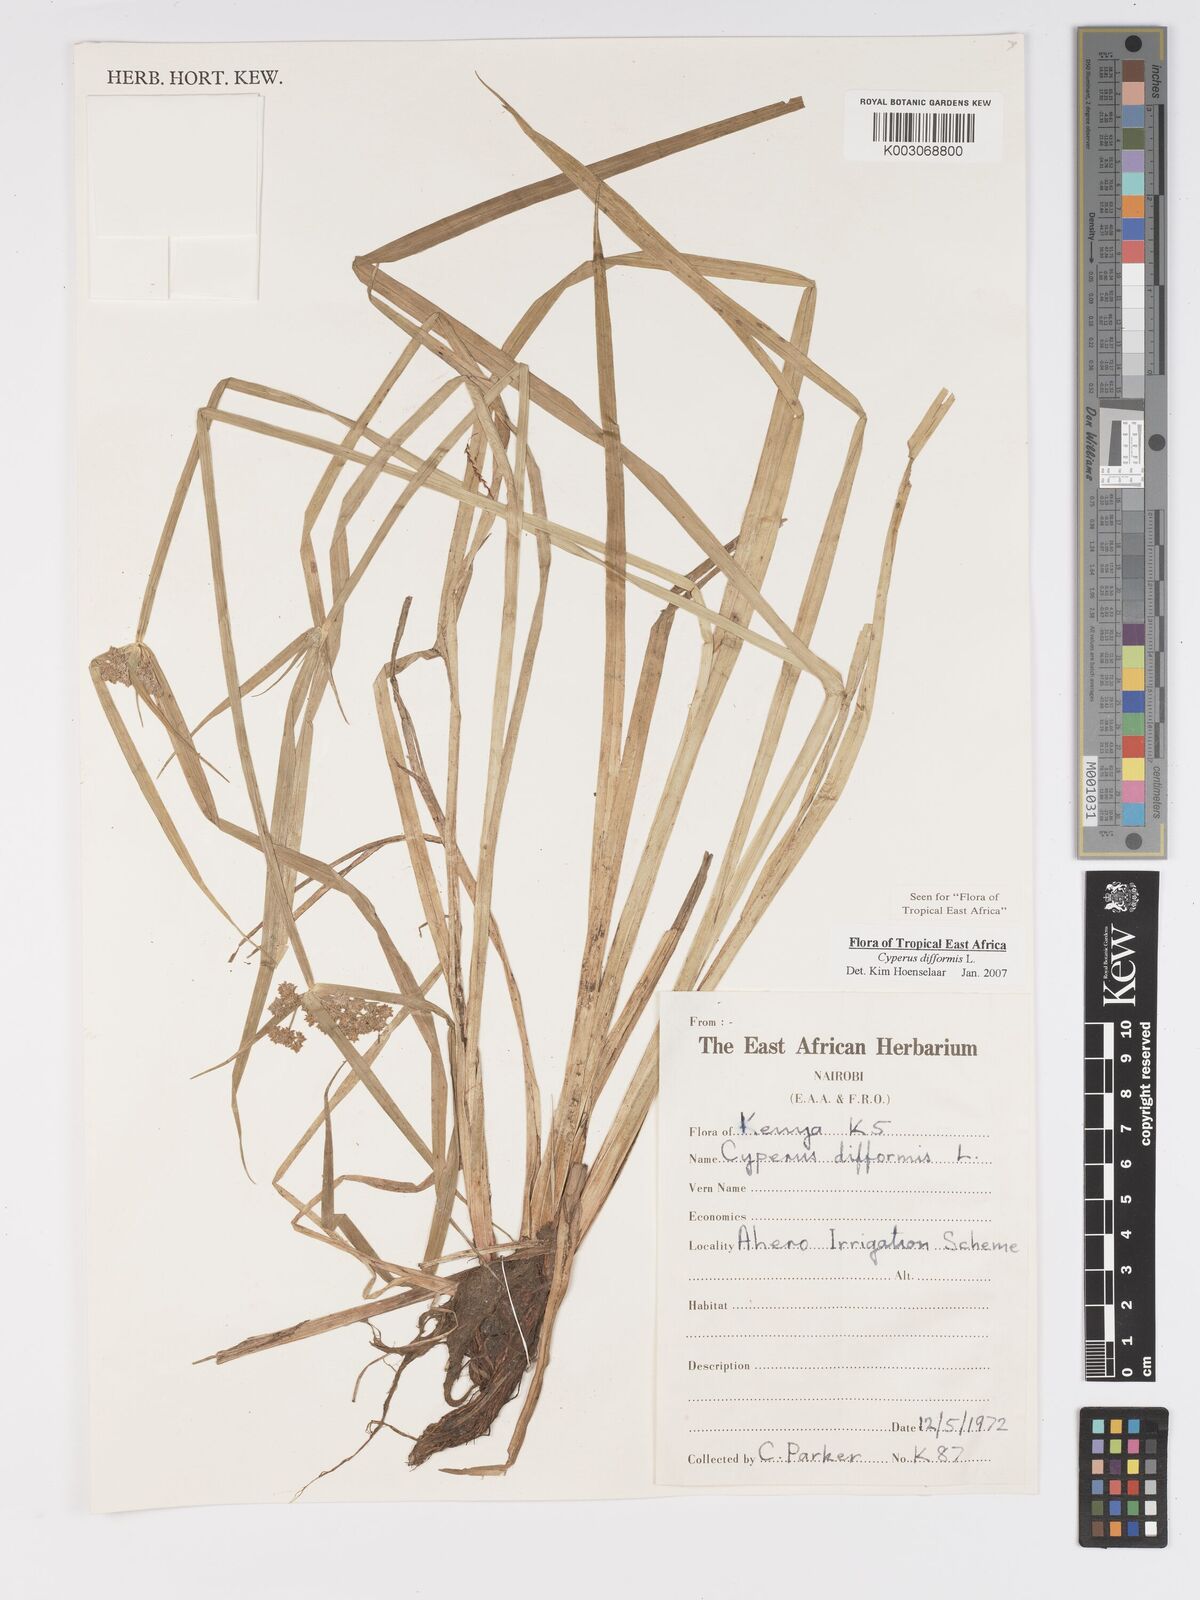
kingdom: Plantae
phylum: Tracheophyta
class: Liliopsida
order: Poales
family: Cyperaceae
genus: Cyperus
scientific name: Cyperus difformis
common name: Variable flatsedge
